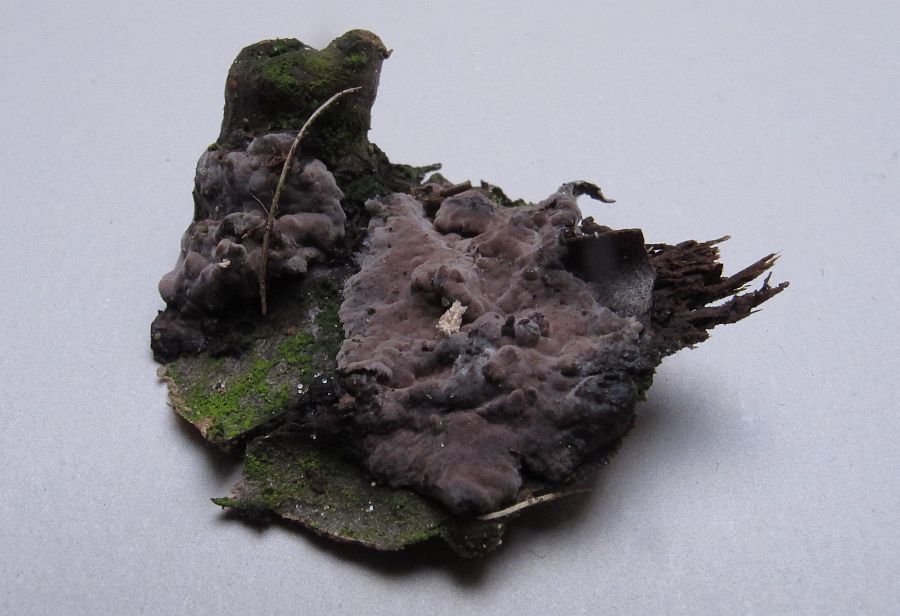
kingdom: Fungi
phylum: Basidiomycota
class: Agaricomycetes
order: Russulales
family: Peniophoraceae
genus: Peniophora
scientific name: Peniophora rufomarginata
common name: linde-voksskind
